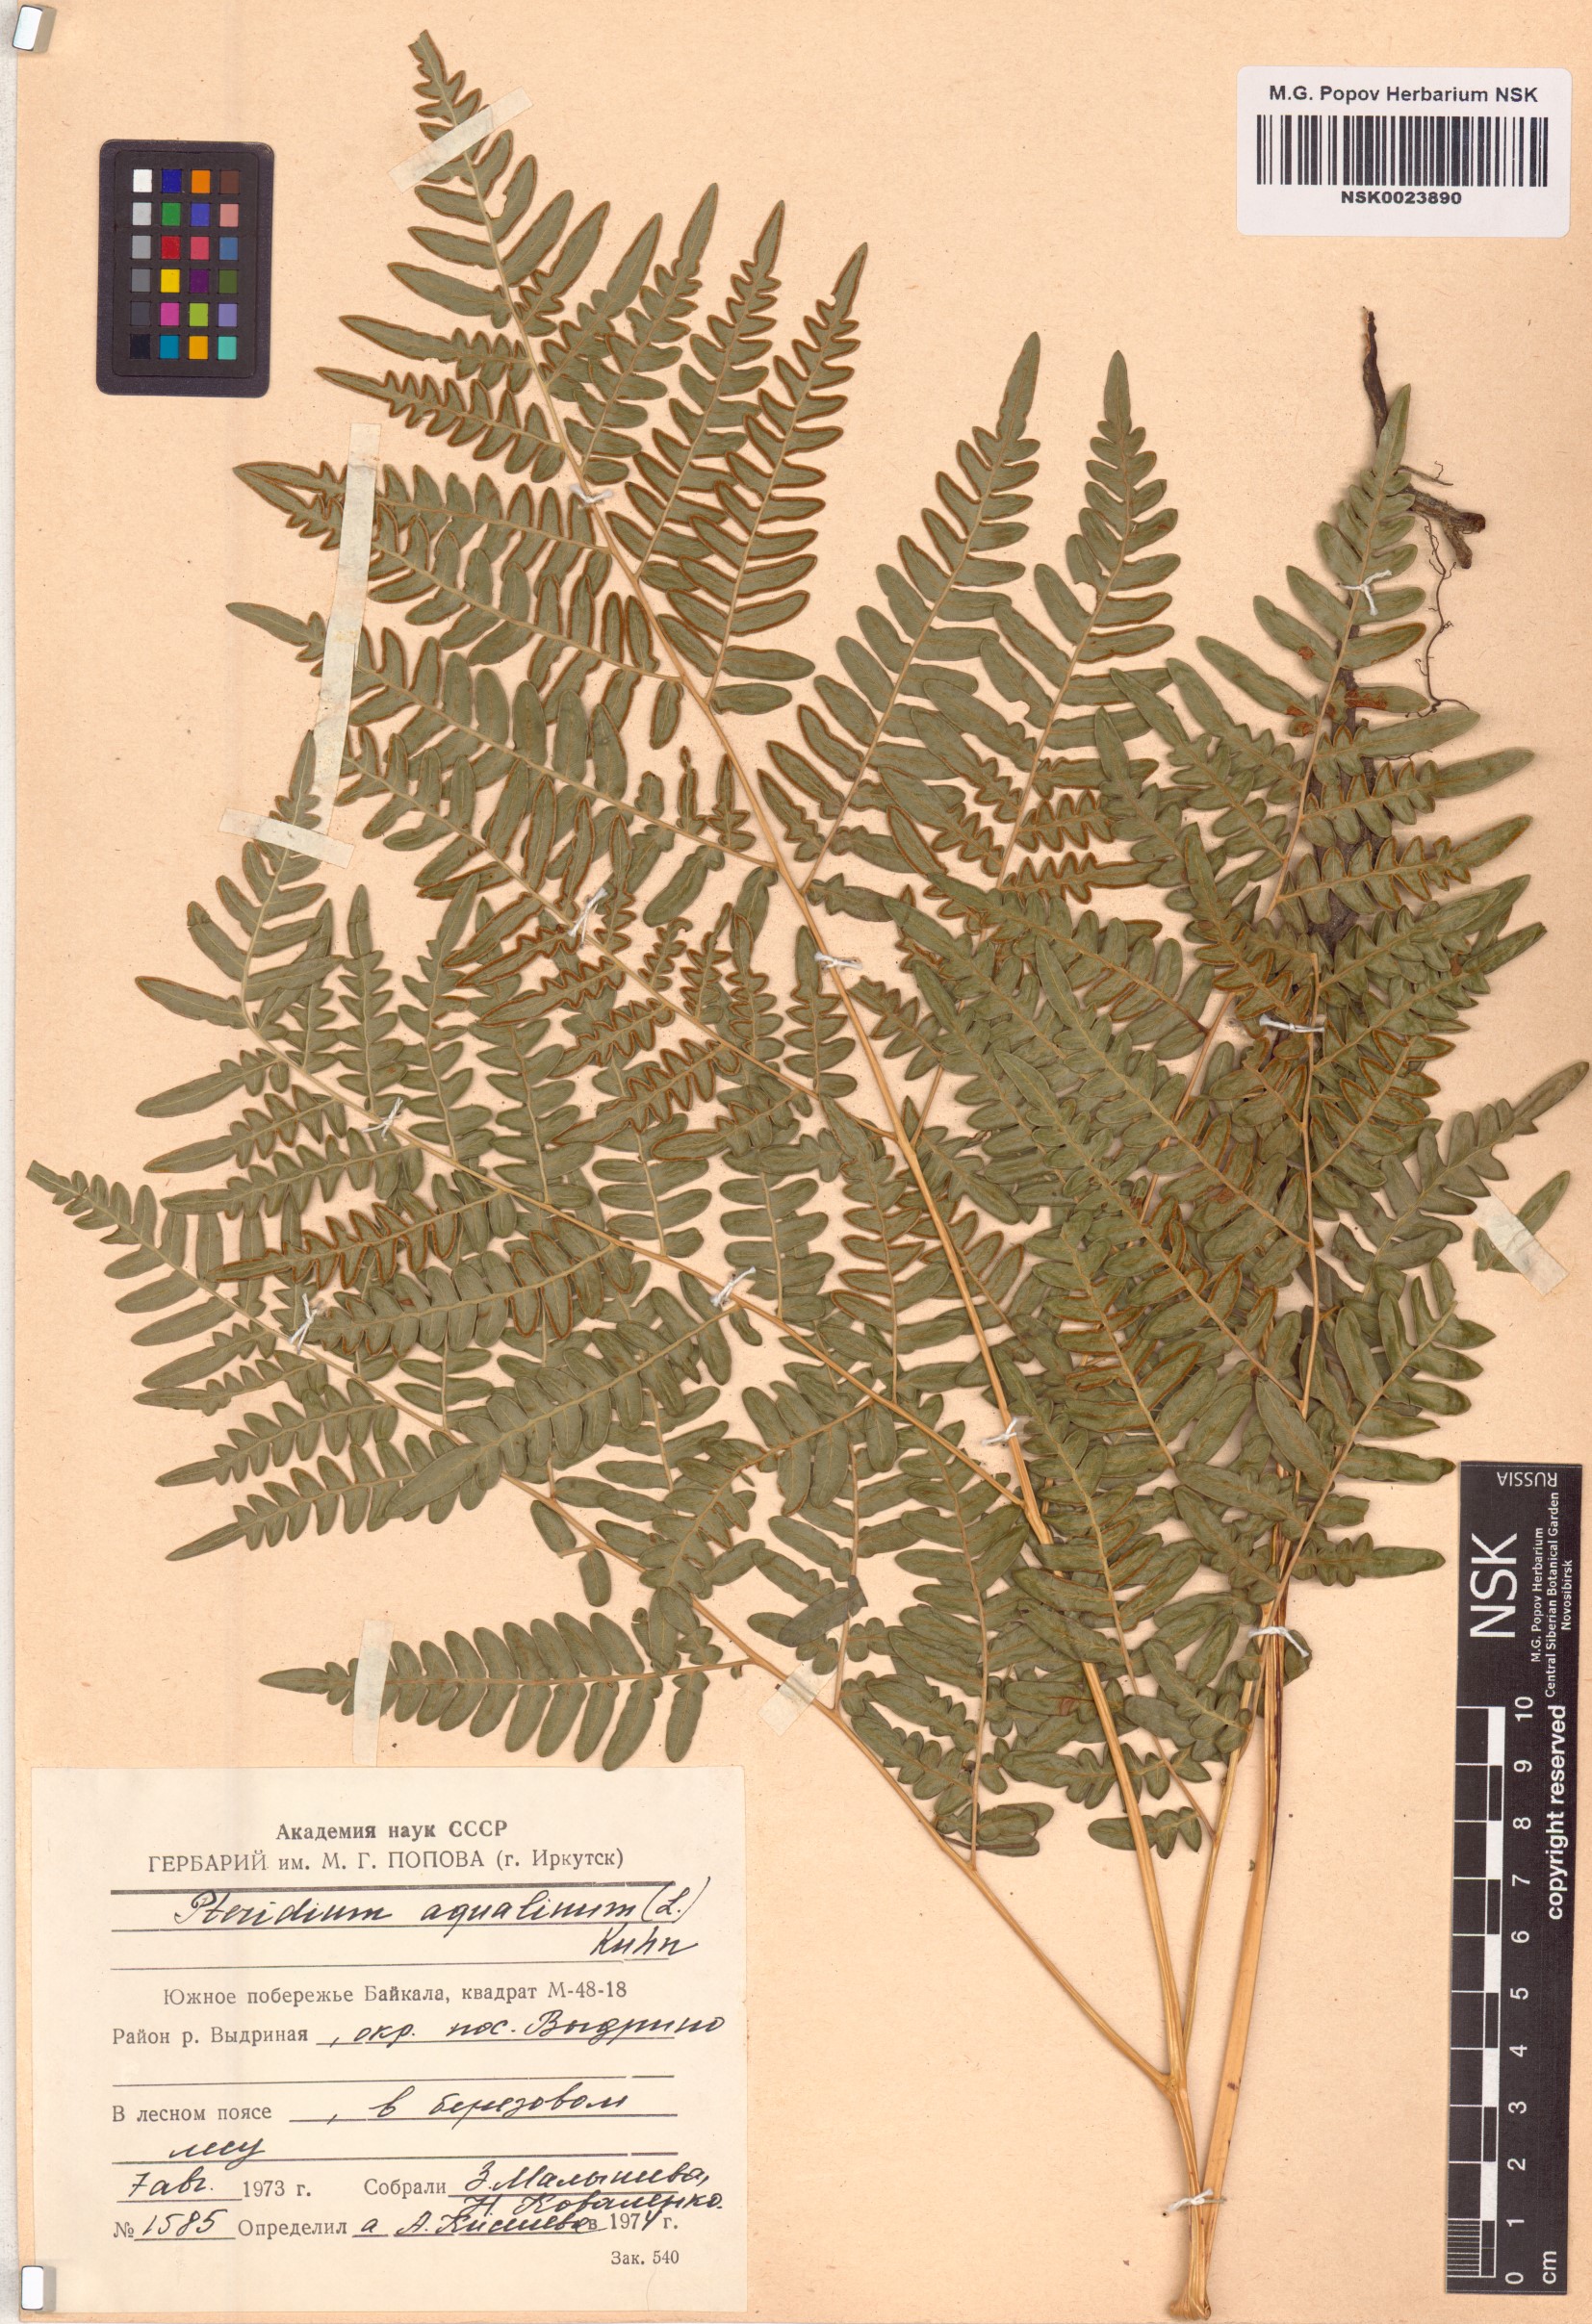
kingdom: Plantae
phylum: Tracheophyta
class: Polypodiopsida
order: Polypodiales
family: Dennstaedtiaceae
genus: Pteridium
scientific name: Pteridium aquilinum
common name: Bracken
